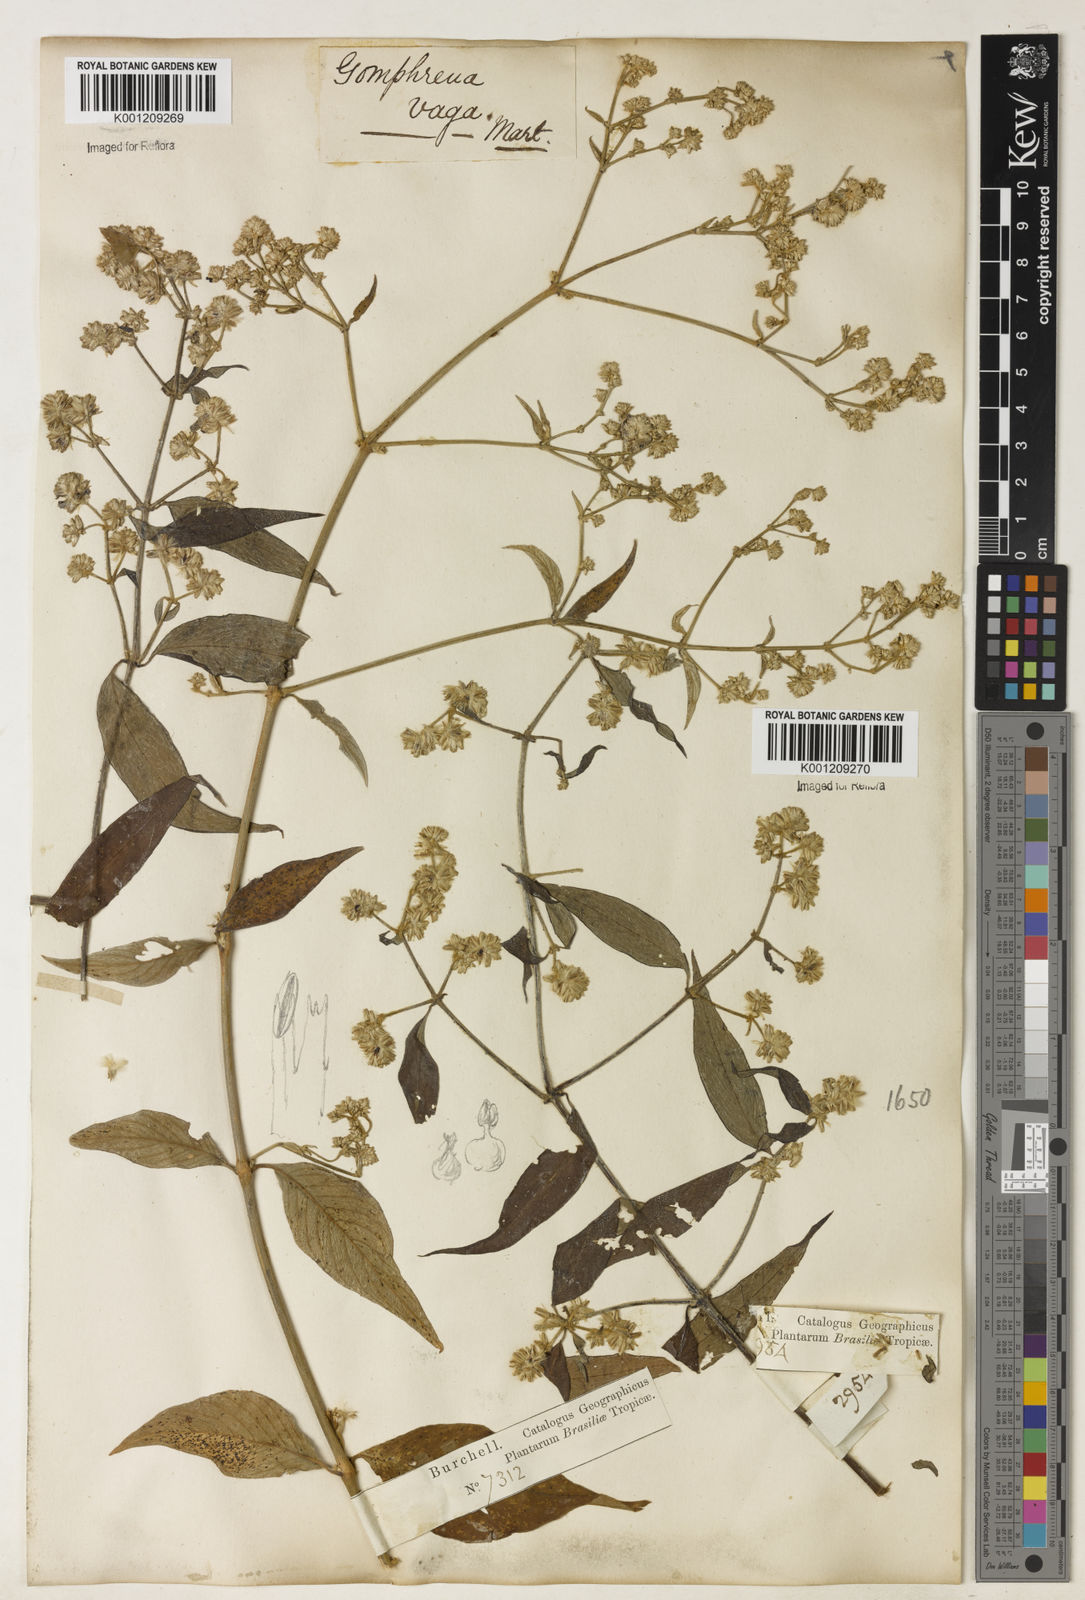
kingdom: Plantae
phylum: Tracheophyta
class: Magnoliopsida
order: Caryophyllales
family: Amaranthaceae
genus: Gomphrena
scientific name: Gomphrena vaga
